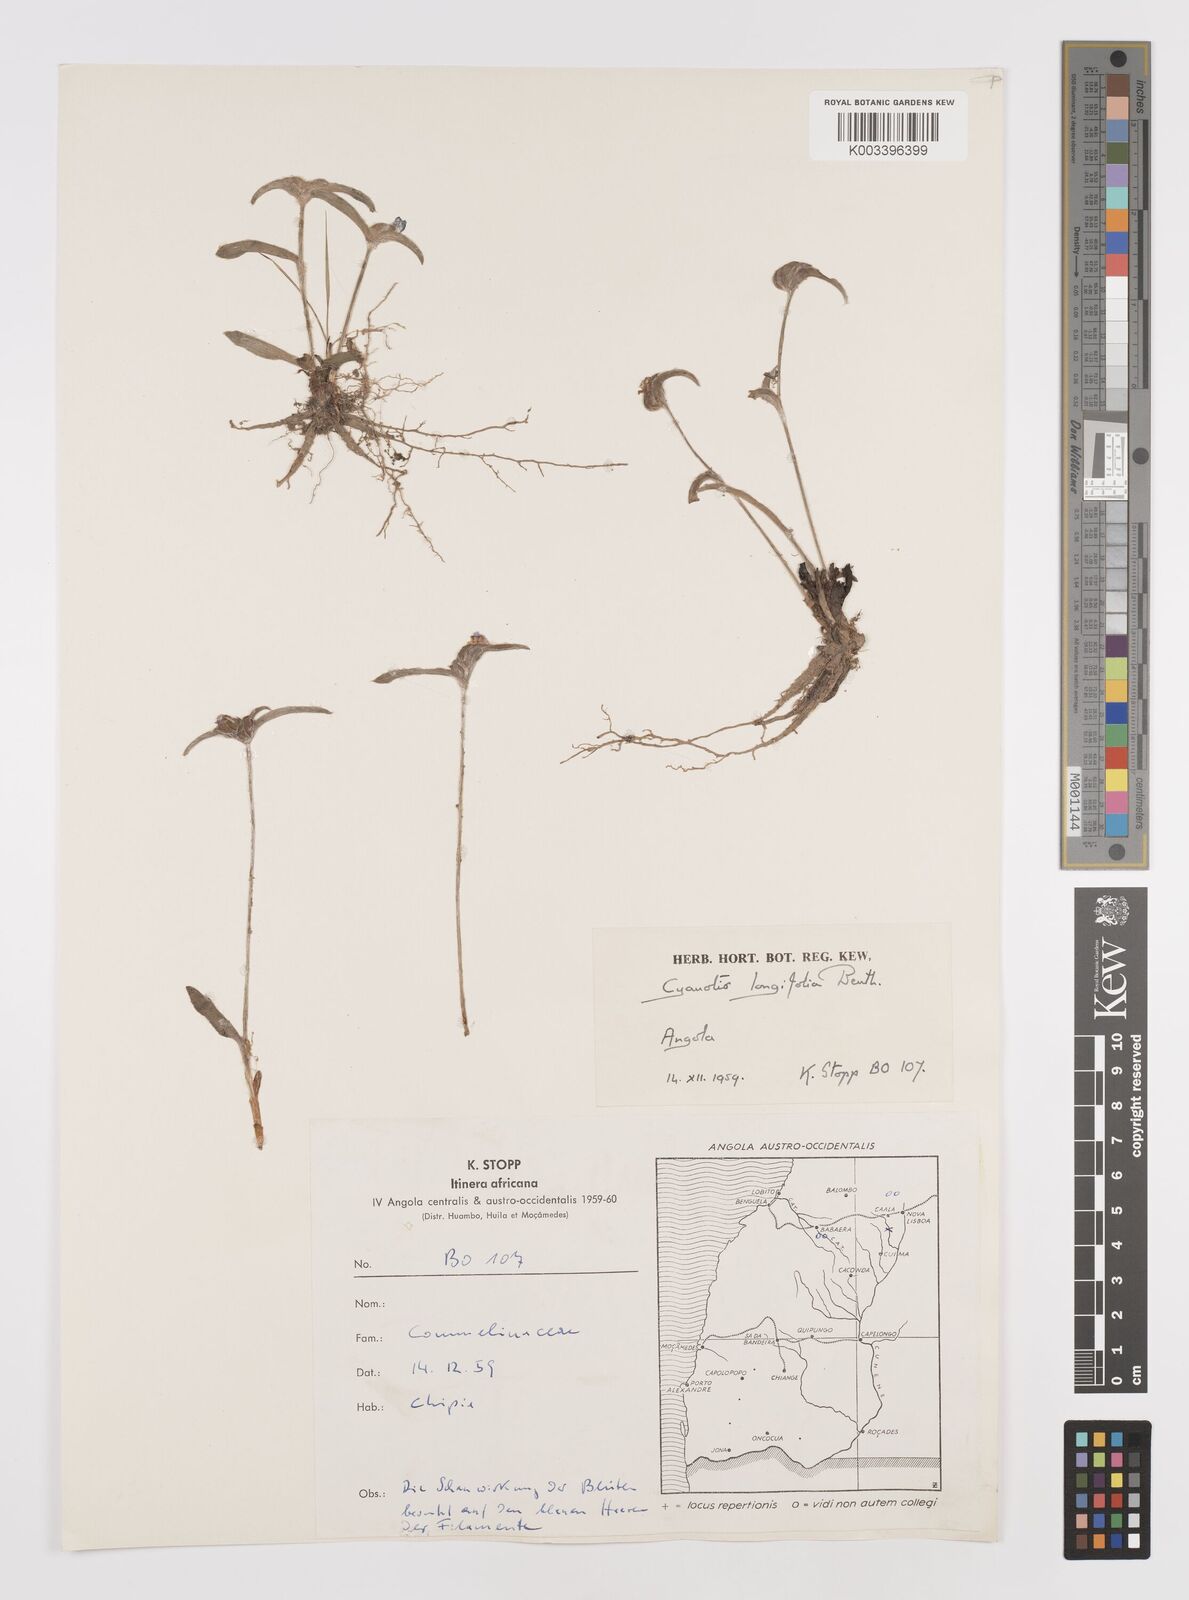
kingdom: Plantae
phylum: Tracheophyta
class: Liliopsida
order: Commelinales
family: Commelinaceae
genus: Cyanotis
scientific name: Cyanotis longifolia
